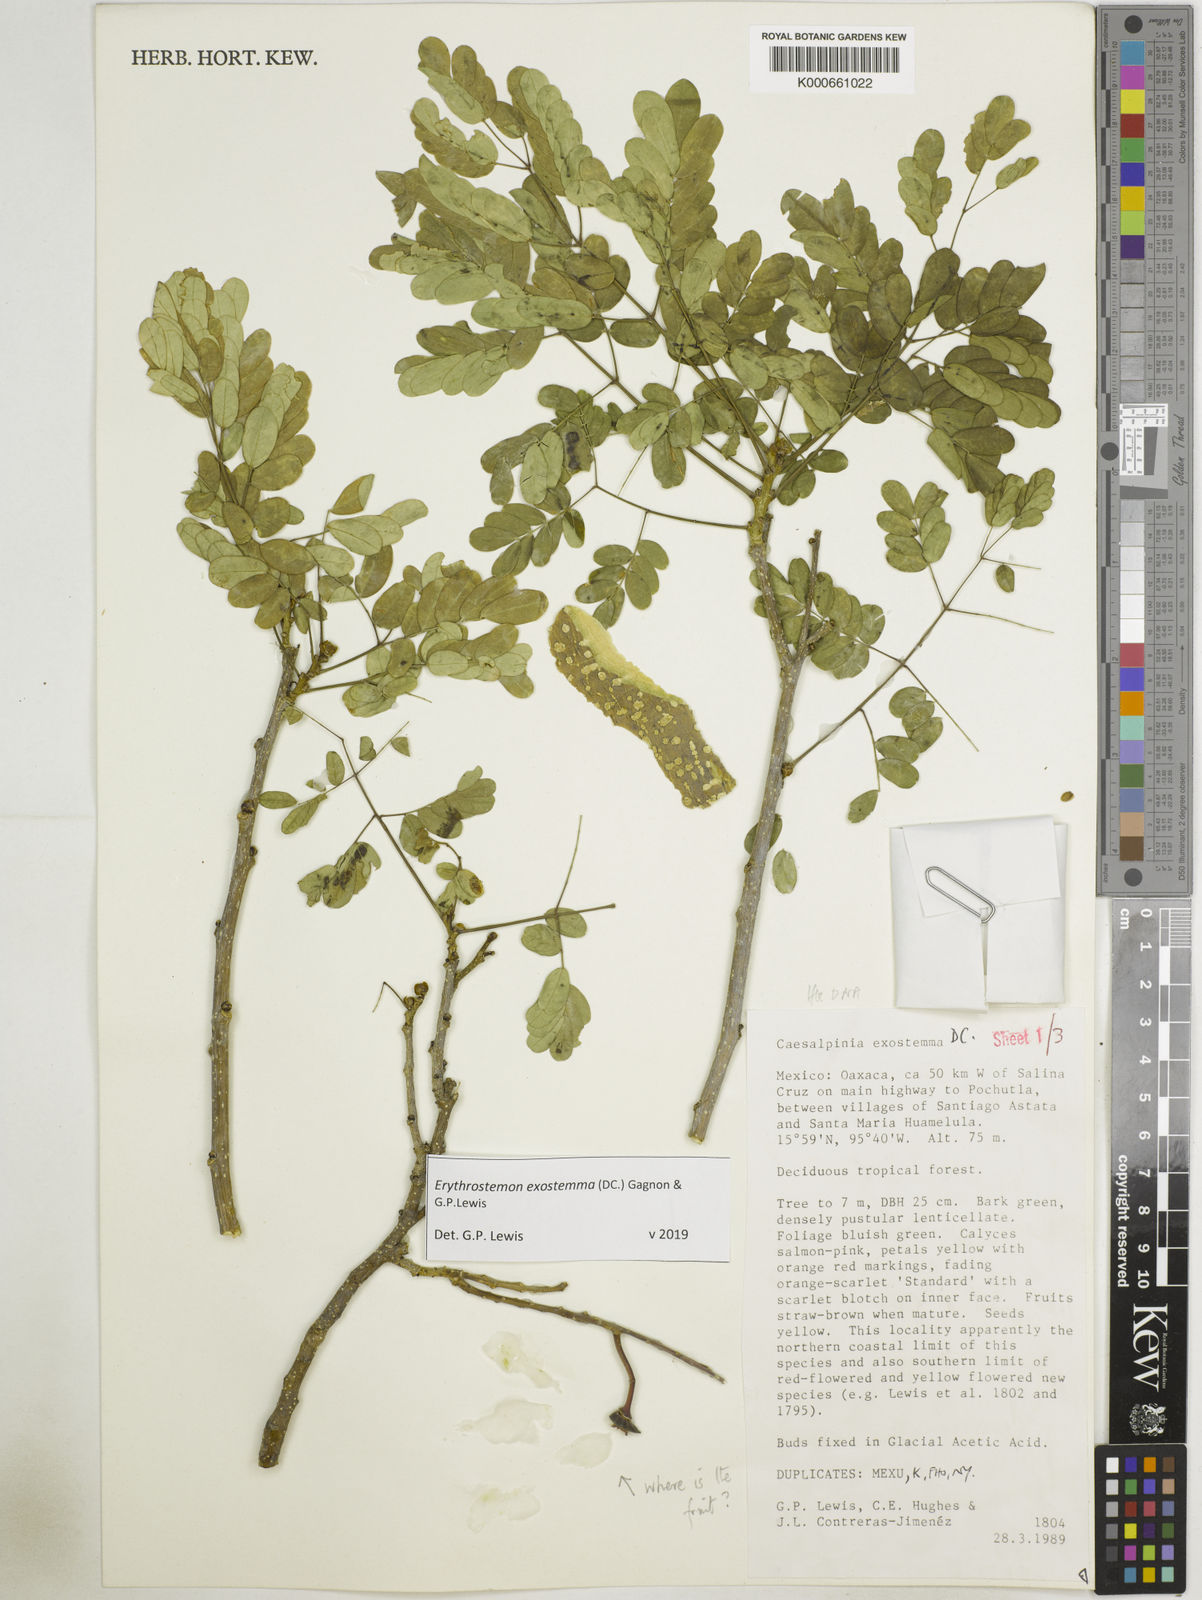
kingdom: Plantae
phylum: Tracheophyta
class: Magnoliopsida
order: Fabales
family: Fabaceae
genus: Erythrostemon
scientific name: Erythrostemon exostemma
